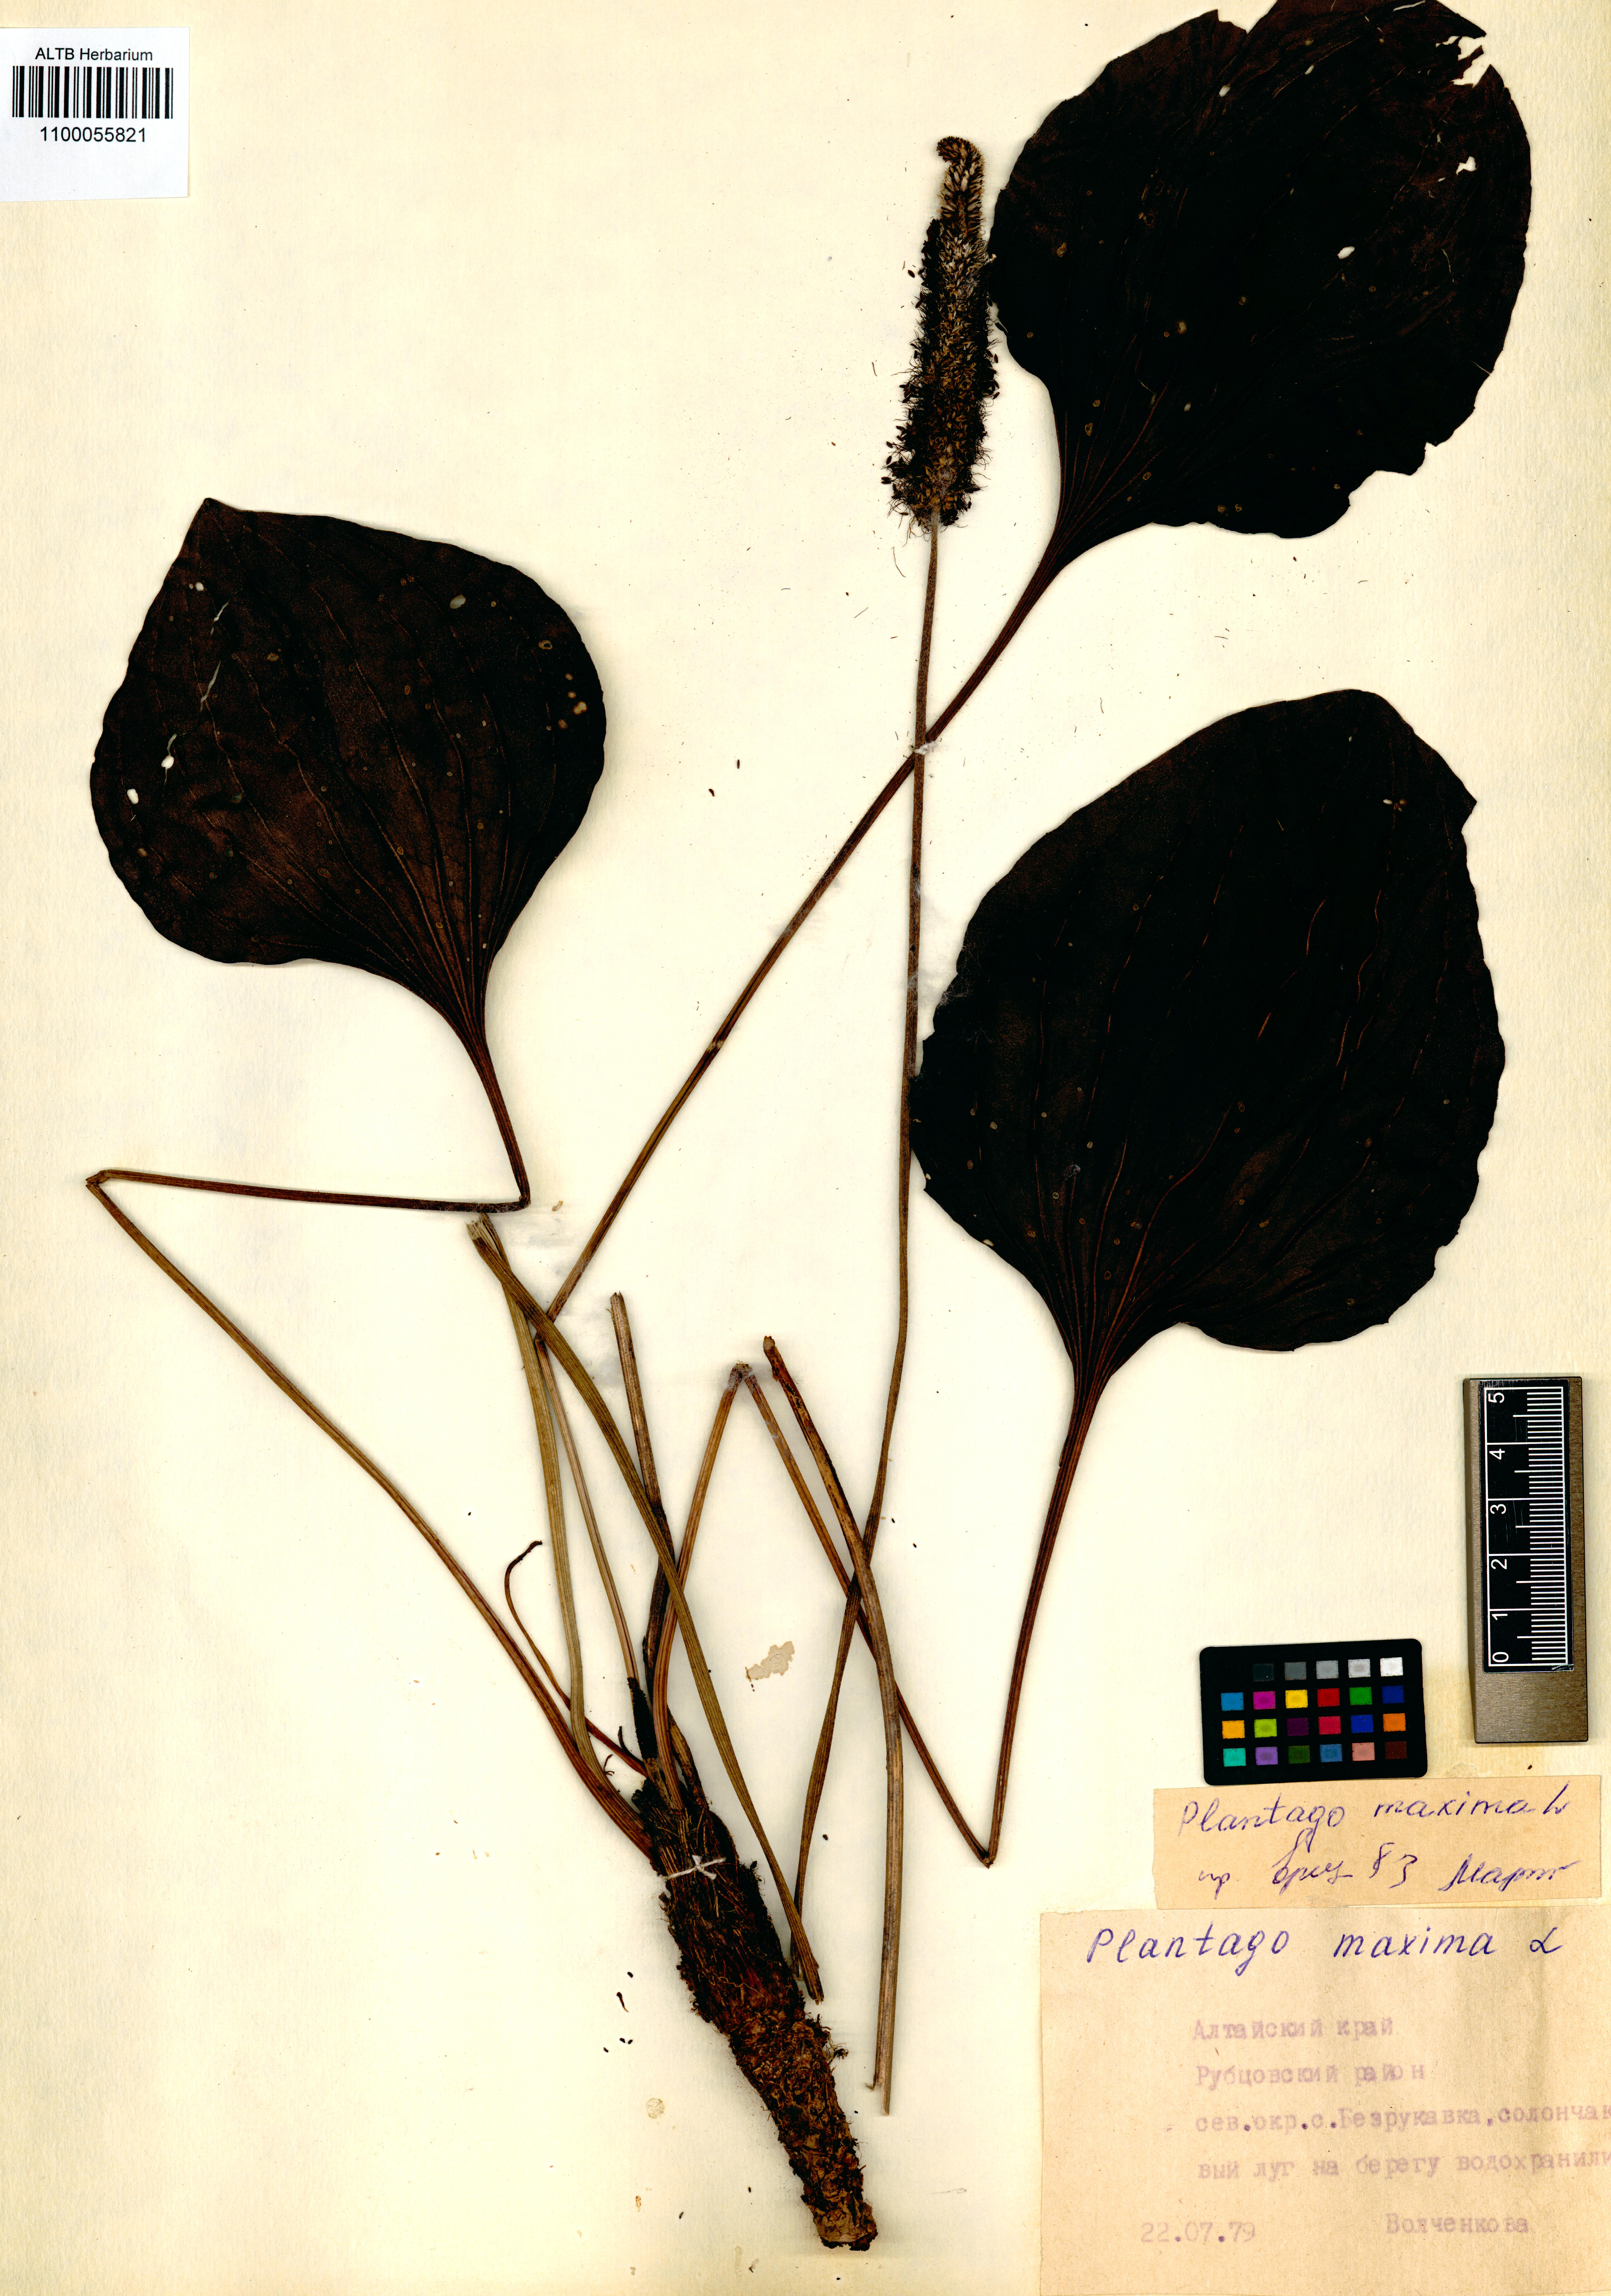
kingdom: Plantae
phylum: Tracheophyta
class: Magnoliopsida
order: Lamiales
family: Plantaginaceae
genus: Plantago
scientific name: Plantago maxima
